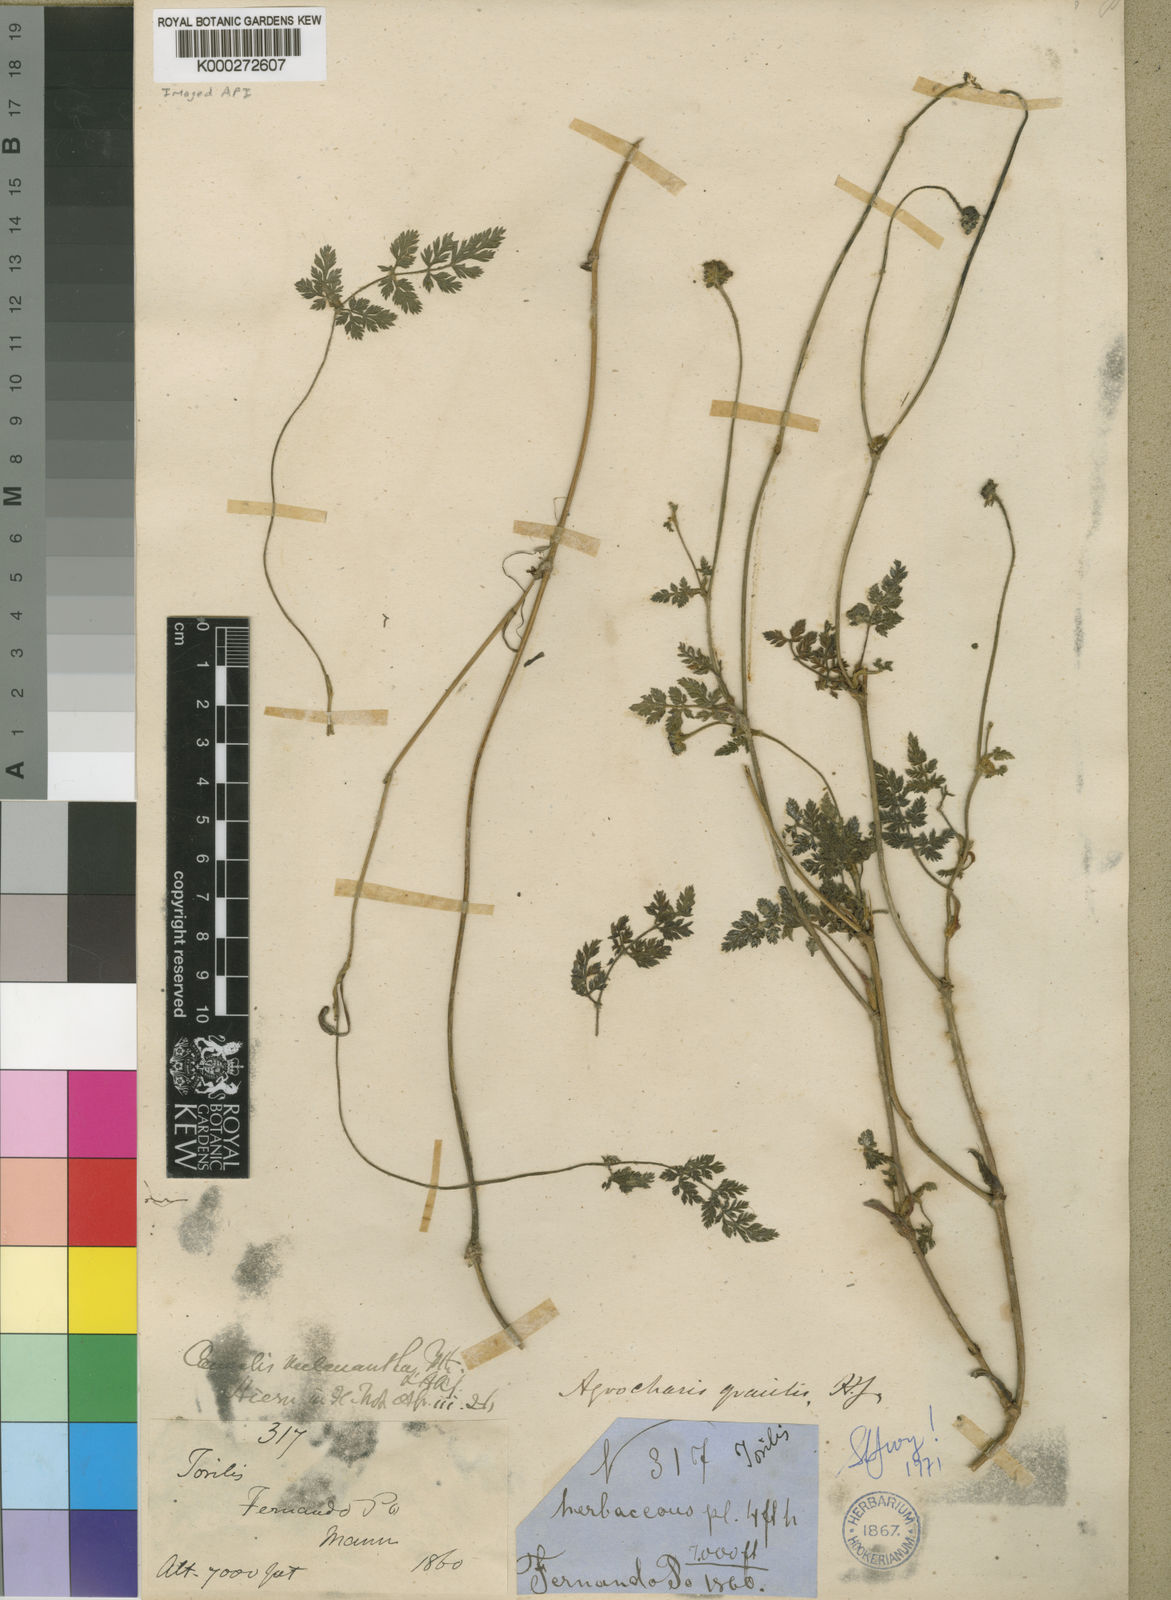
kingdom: Plantae
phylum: Tracheophyta
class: Magnoliopsida
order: Apiales
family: Apiaceae
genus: Daucus
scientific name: Daucus melananthus
